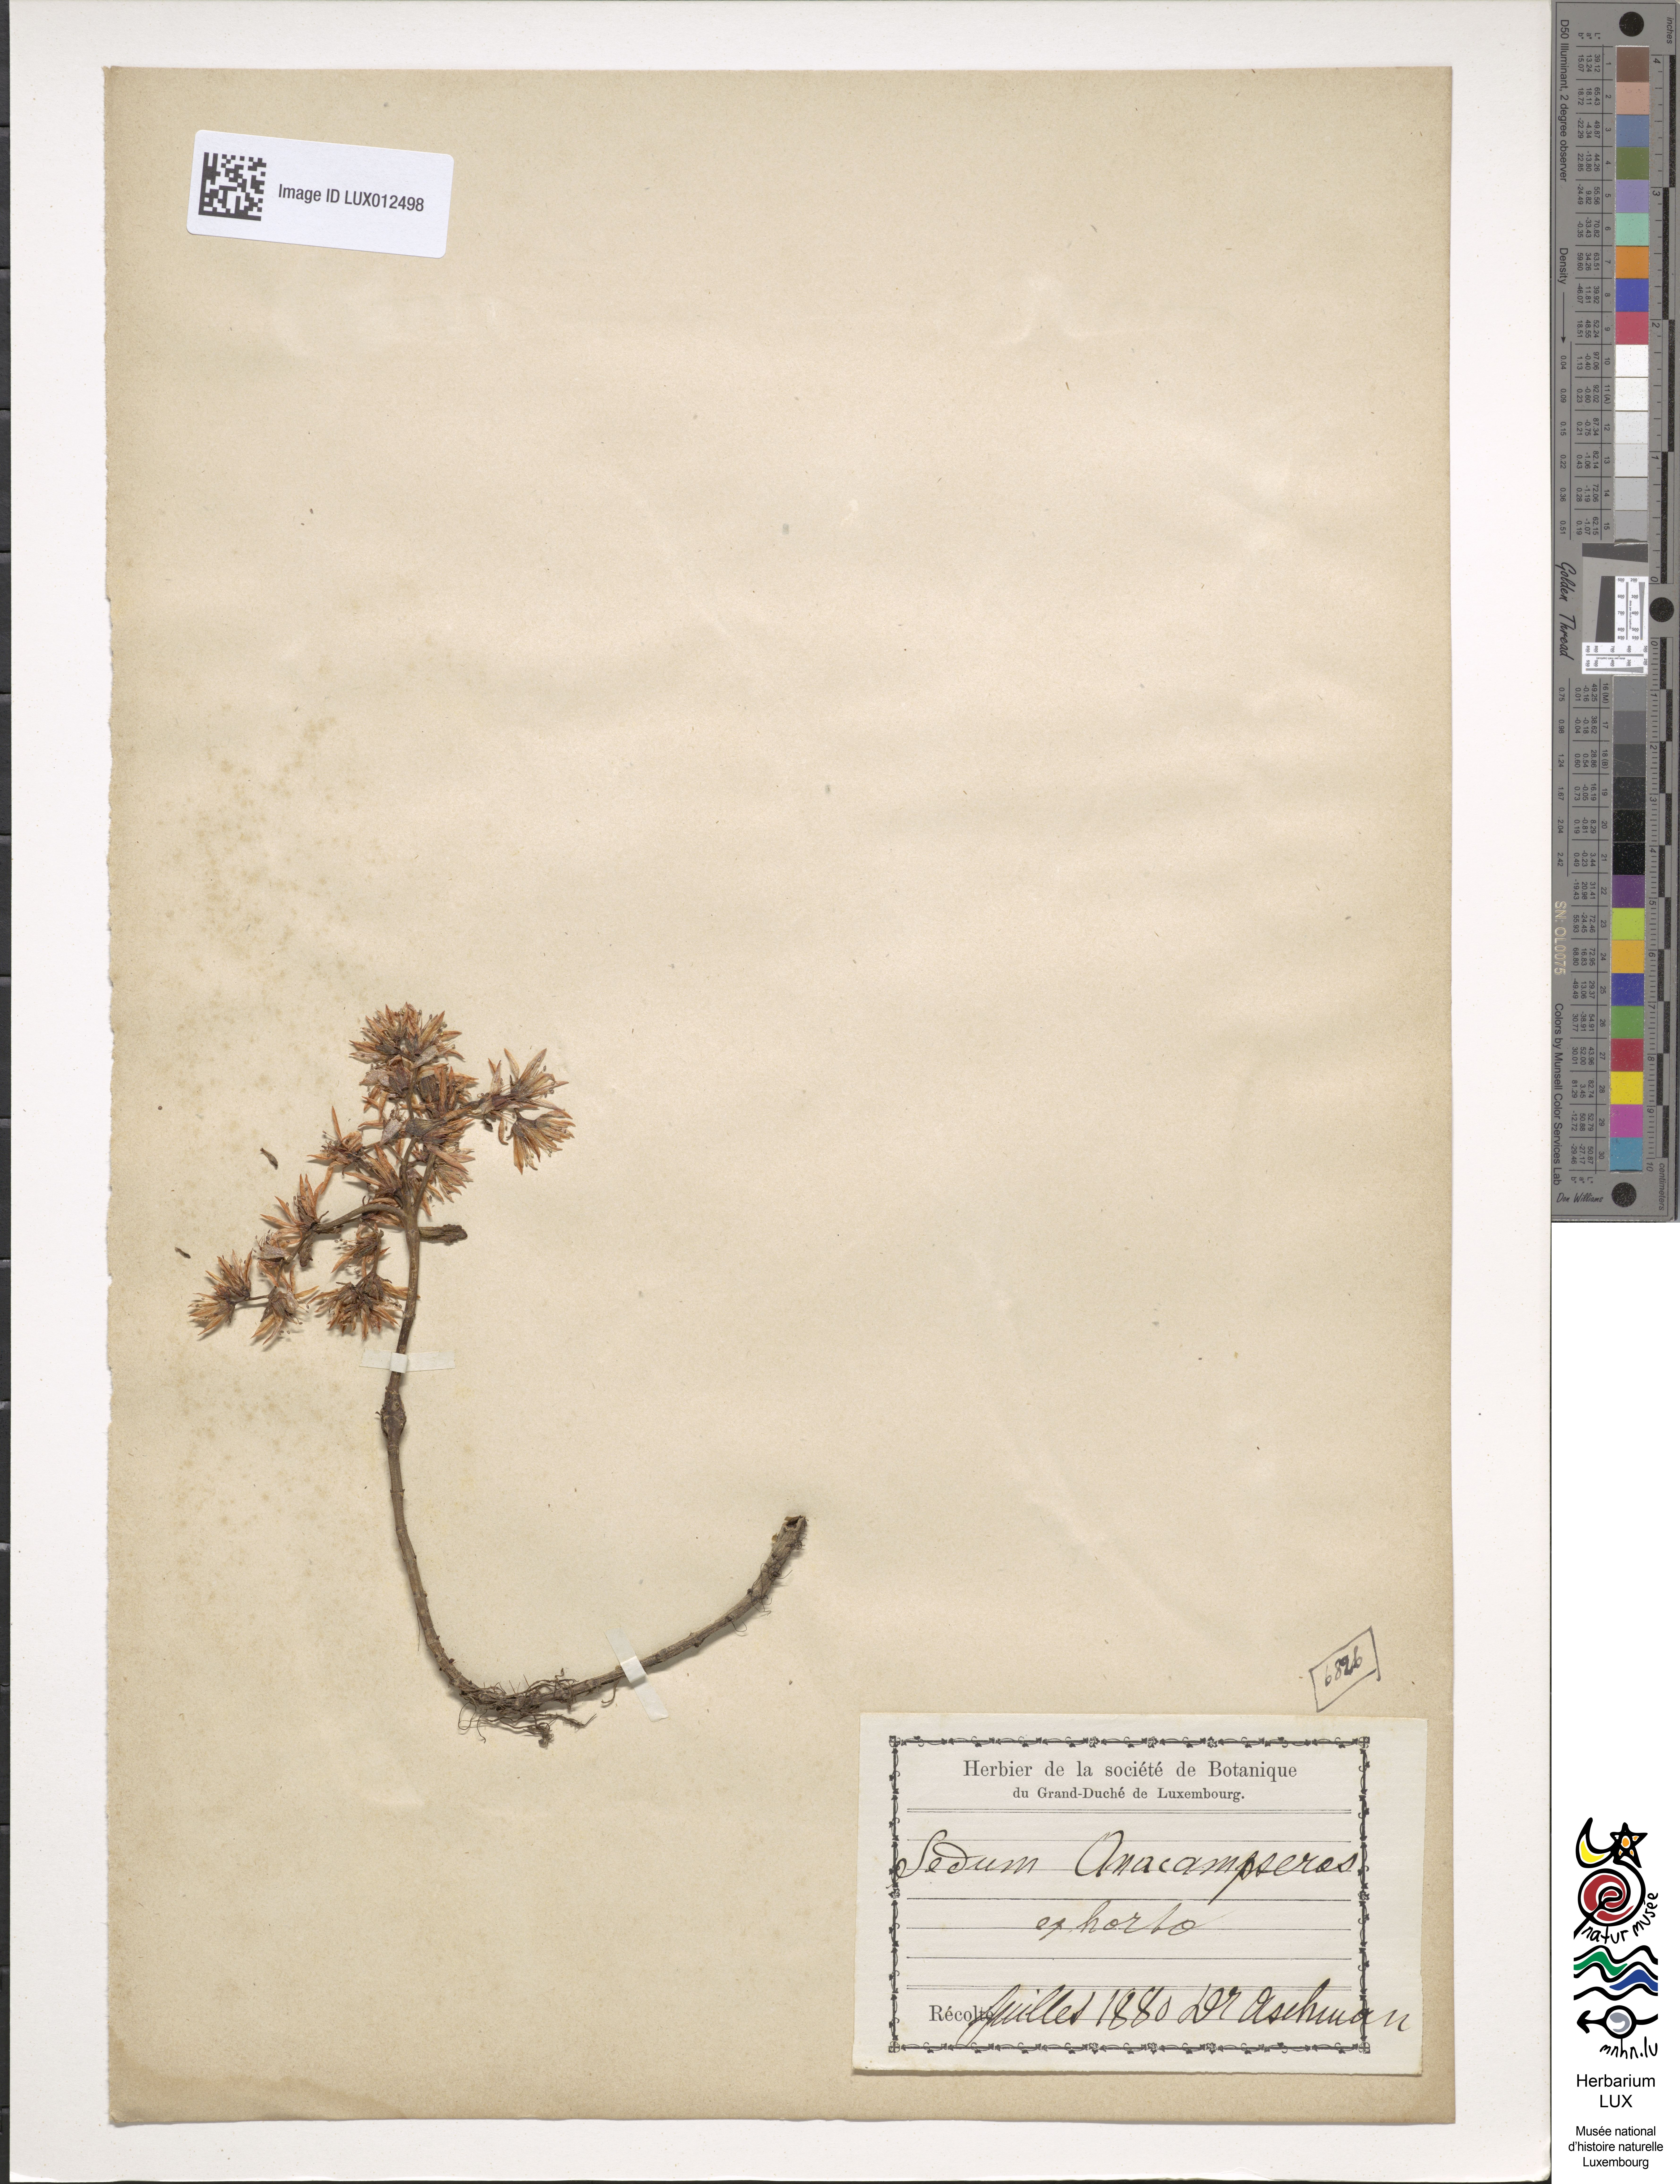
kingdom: Plantae
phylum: Tracheophyta
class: Magnoliopsida
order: Saxifragales
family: Crassulaceae
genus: Hylotelephium
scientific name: Hylotelephium anacampseros
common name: Love-restorer
